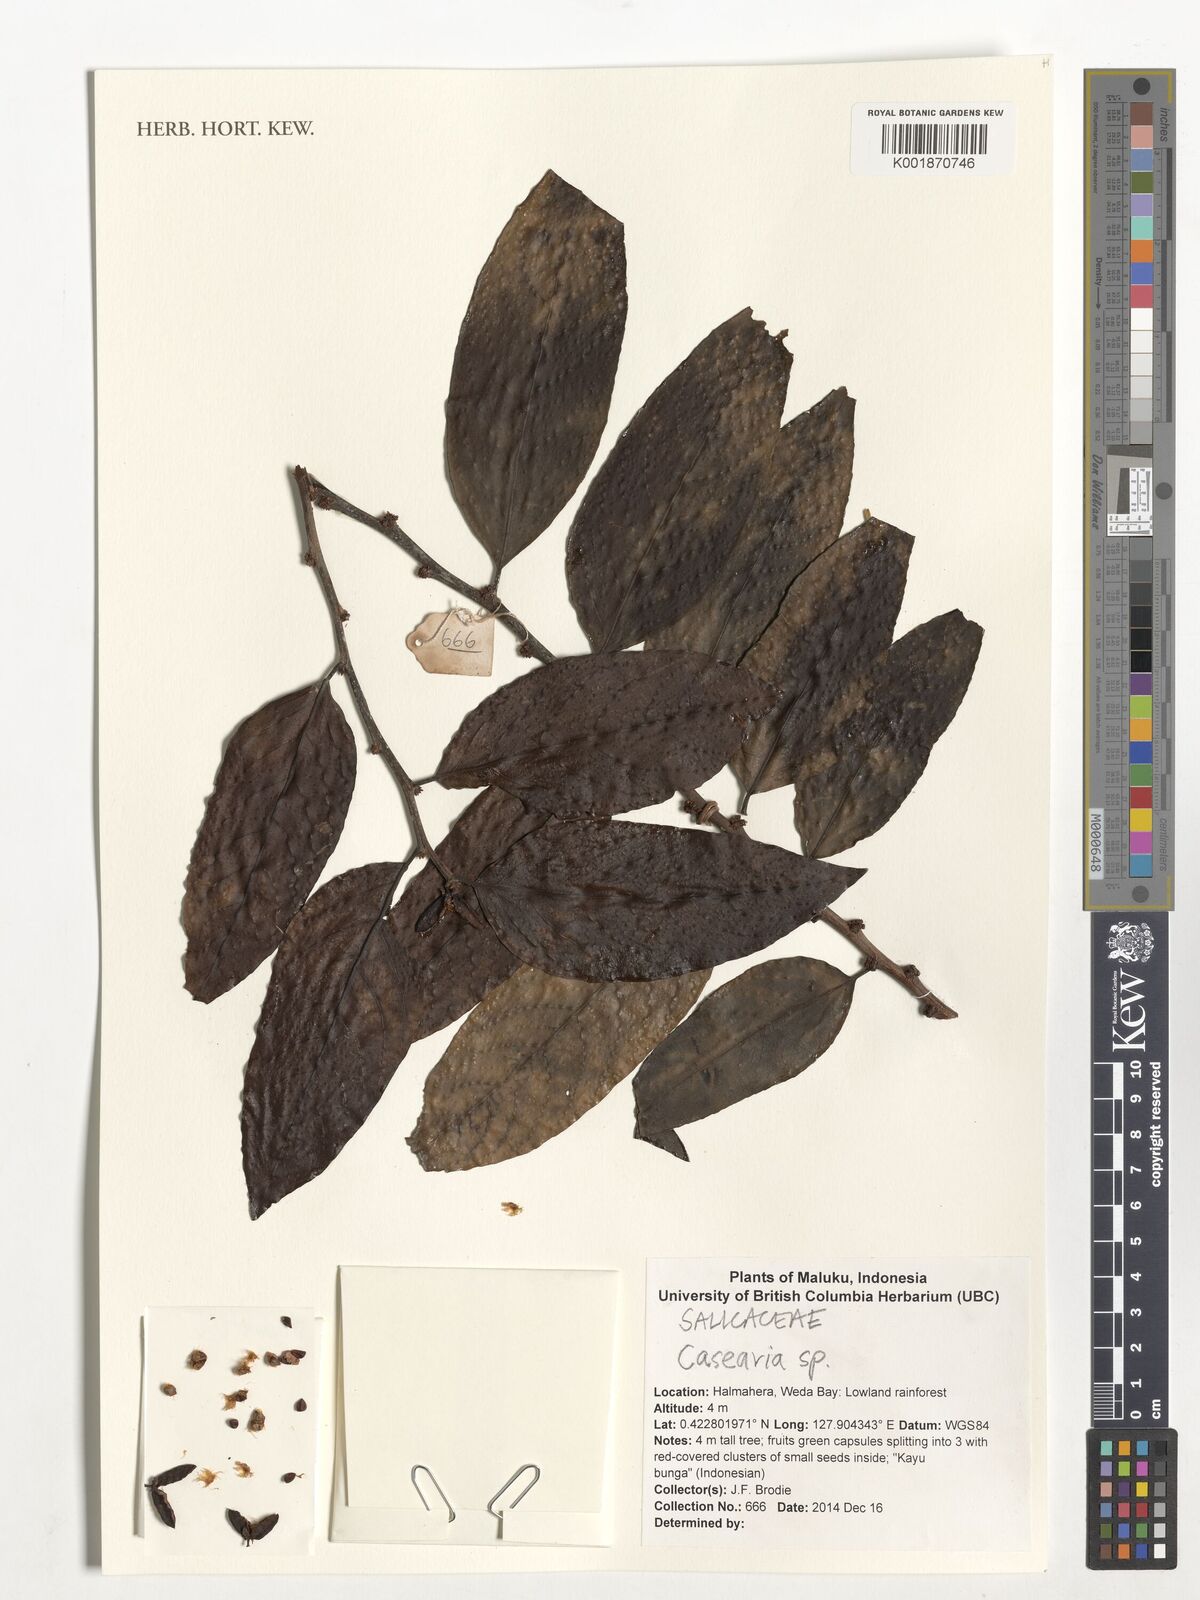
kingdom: Plantae
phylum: Tracheophyta
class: Magnoliopsida
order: Malpighiales
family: Salicaceae
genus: Casearia
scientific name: Casearia
